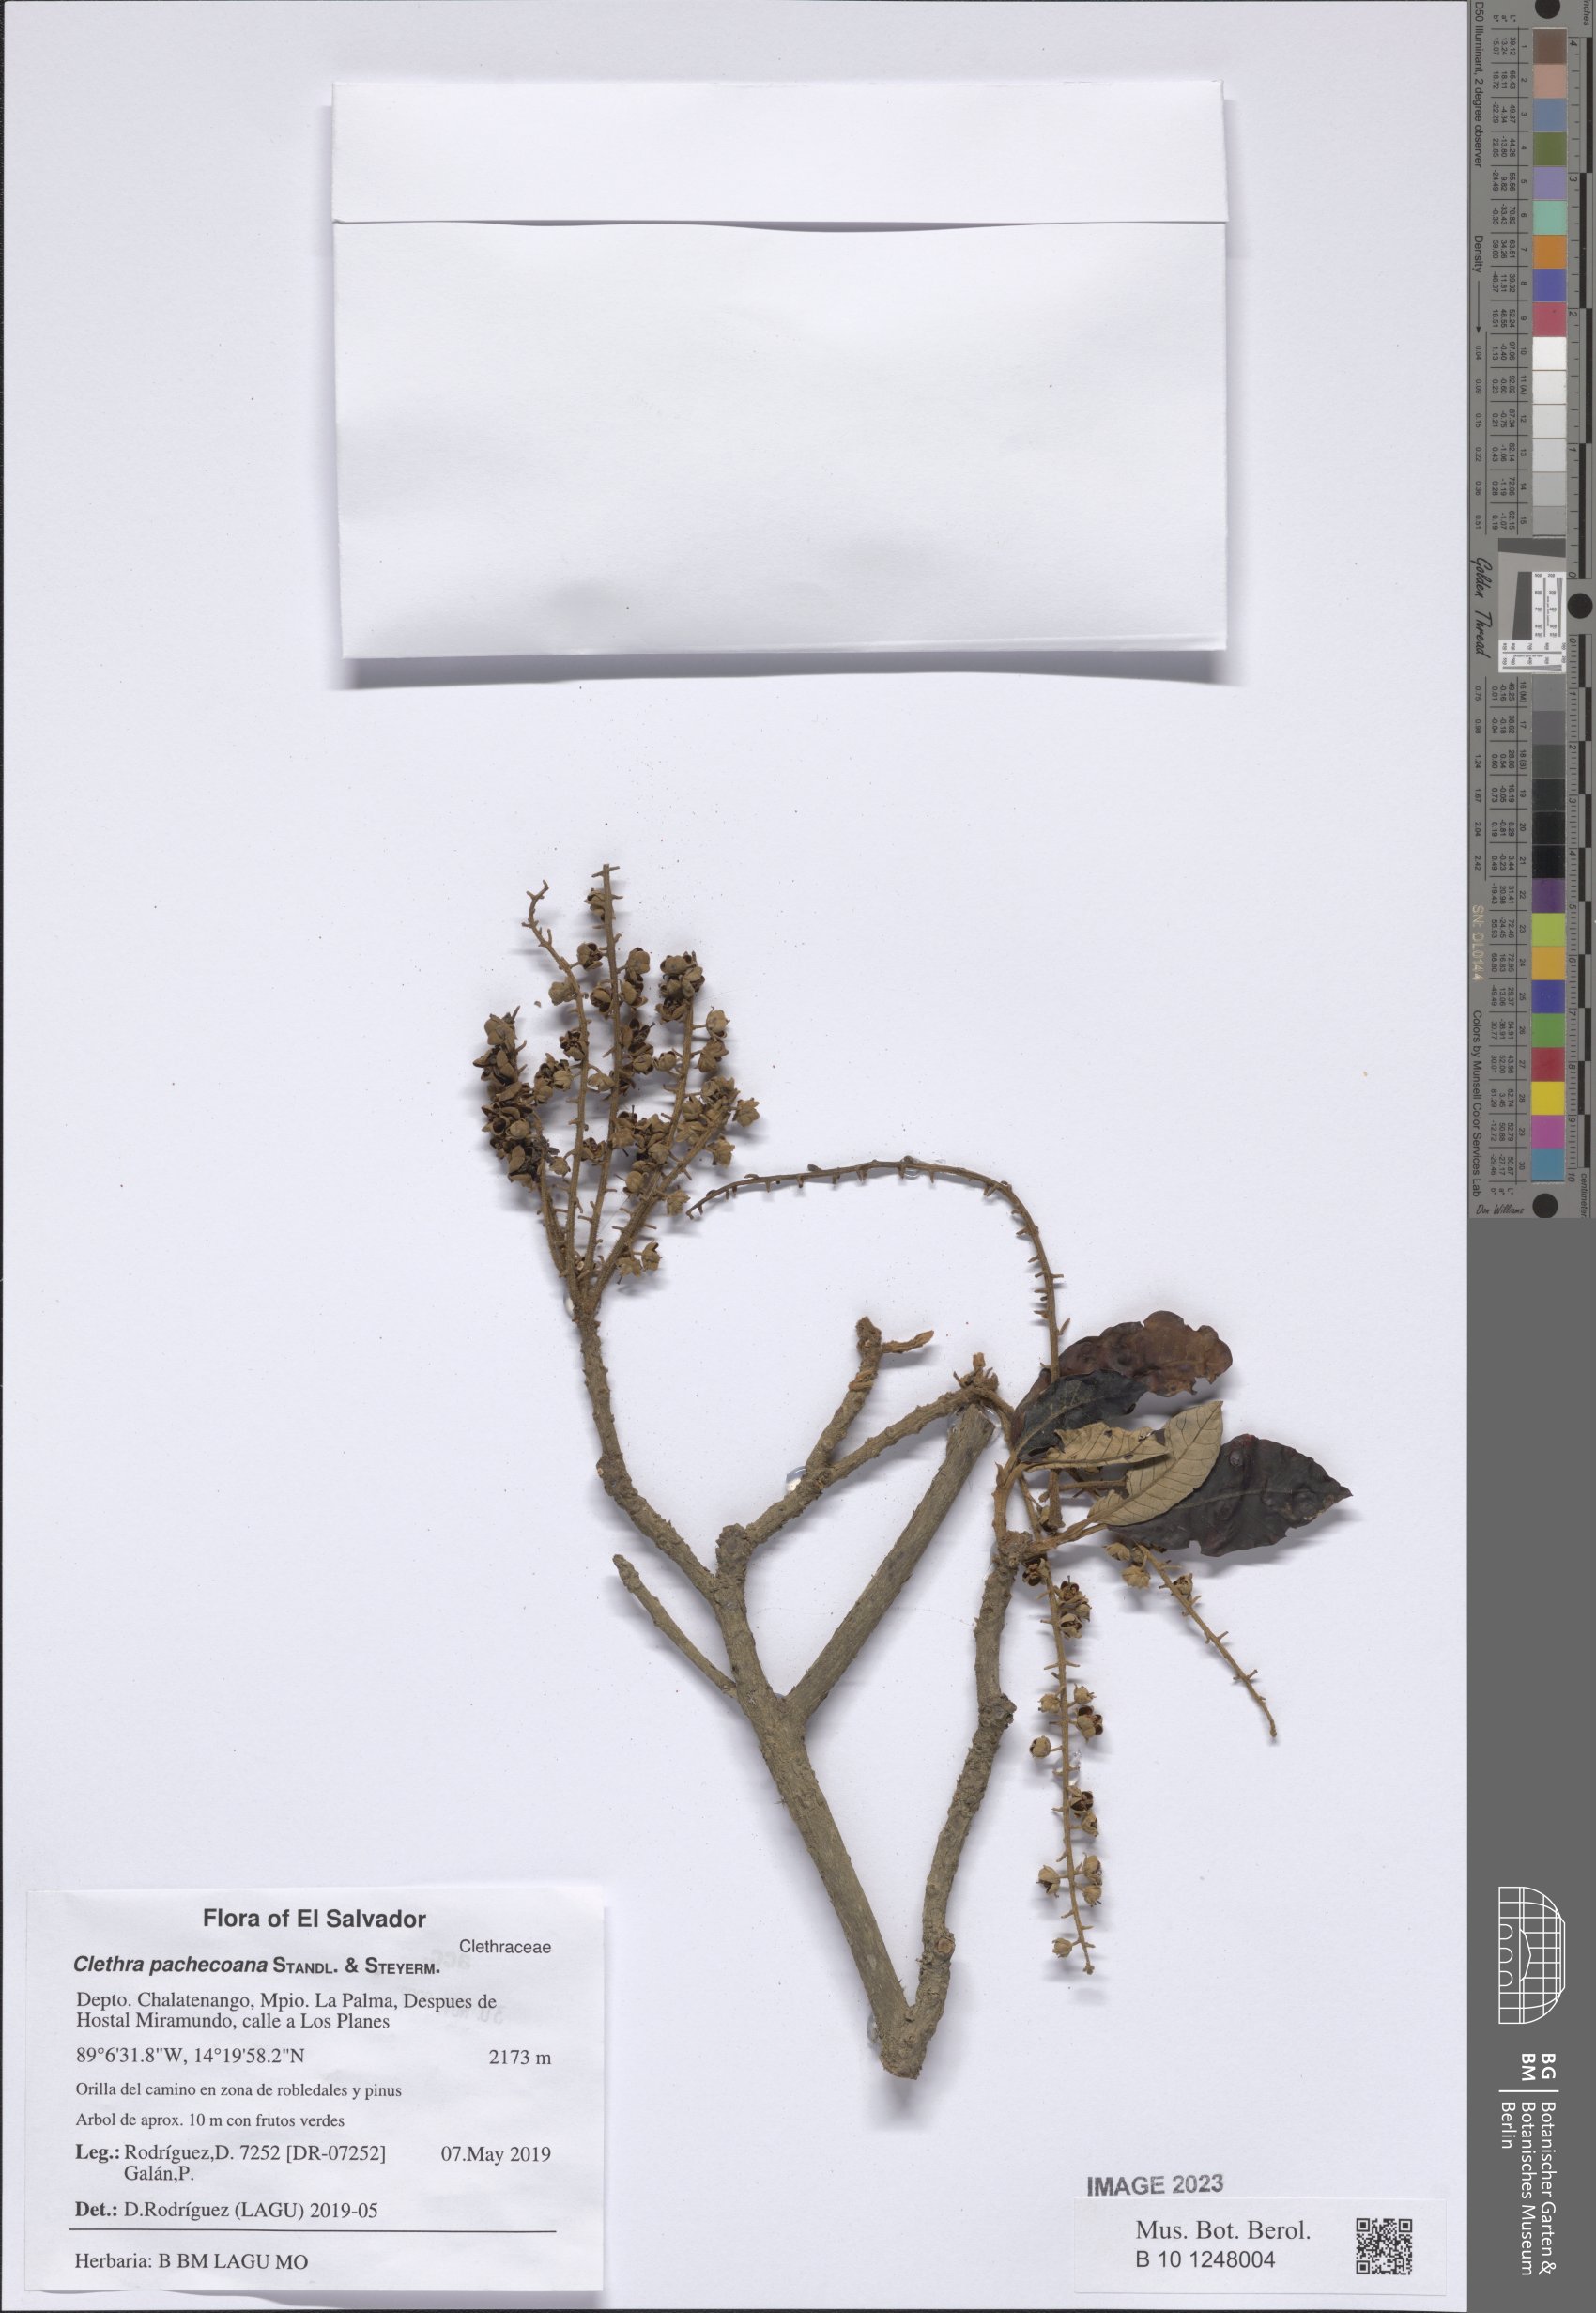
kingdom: Plantae
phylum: Tracheophyta
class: Magnoliopsida
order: Ericales
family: Clethraceae
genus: Clethra
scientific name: Clethra pachecoana
